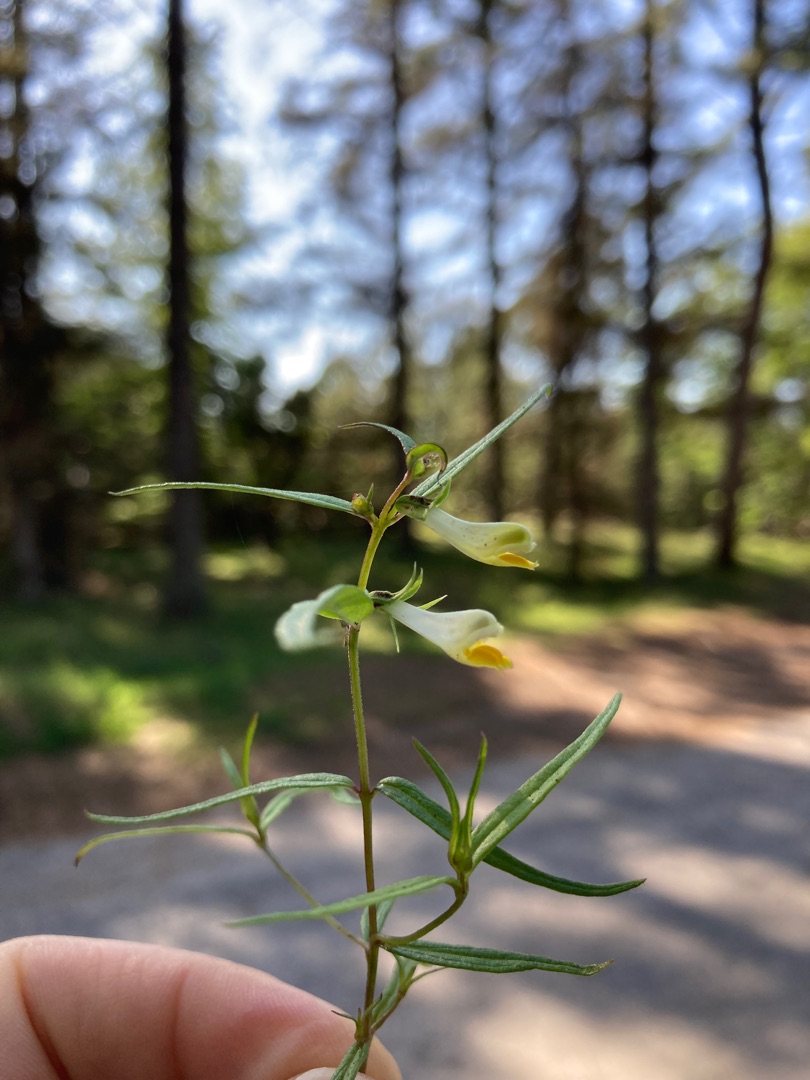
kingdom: Plantae
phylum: Tracheophyta
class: Magnoliopsida
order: Lamiales
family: Orobanchaceae
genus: Melampyrum
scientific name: Melampyrum pratense
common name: Almindelig kohvede
